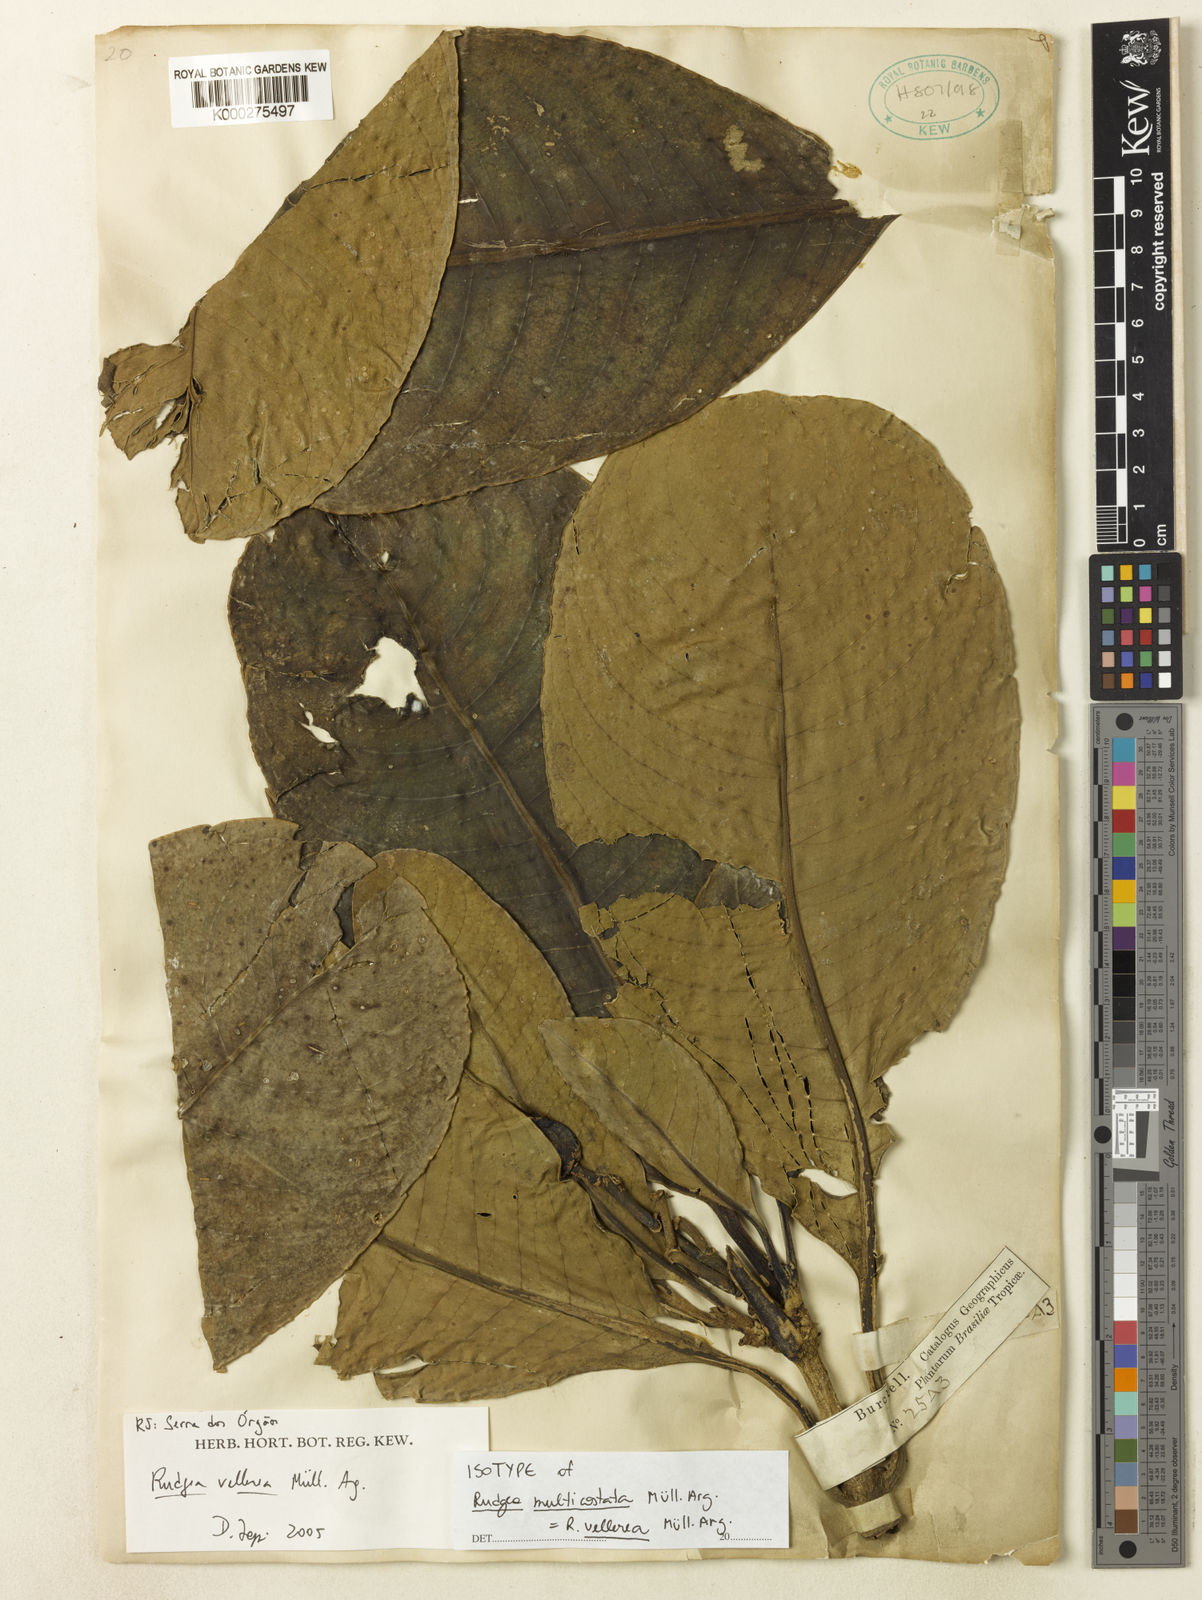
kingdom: Plantae
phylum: Tracheophyta
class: Magnoliopsida
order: Gentianales
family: Rubiaceae
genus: Rudgea
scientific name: Rudgea
